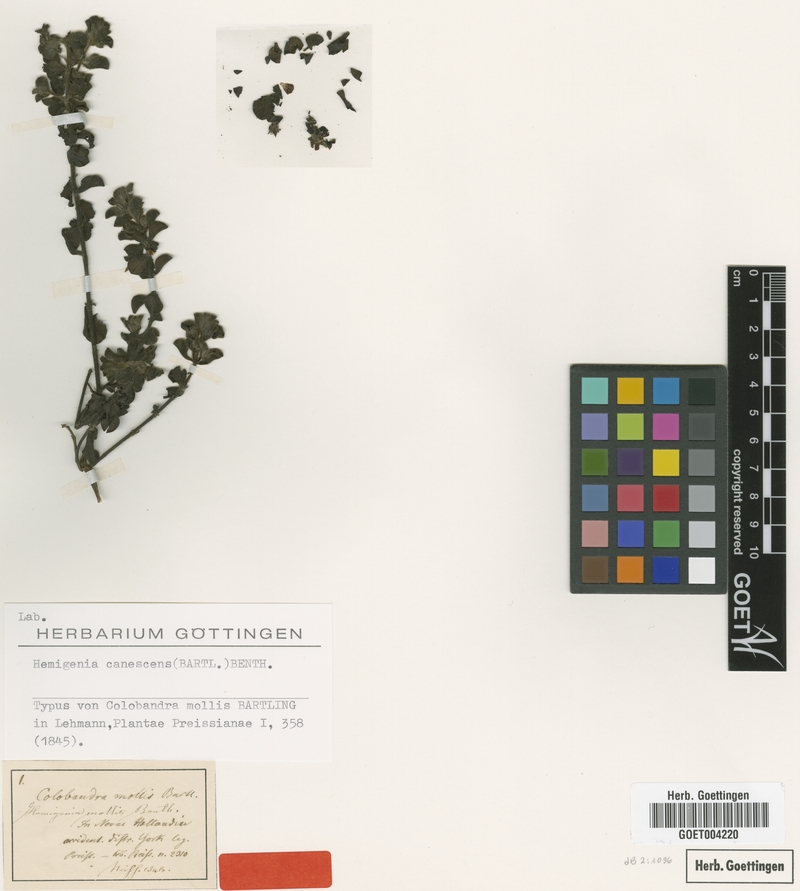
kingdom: Plantae
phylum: Tracheophyta
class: Magnoliopsida
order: Lamiales
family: Lamiaceae
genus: Hemigenia
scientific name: Hemigenia canescens
